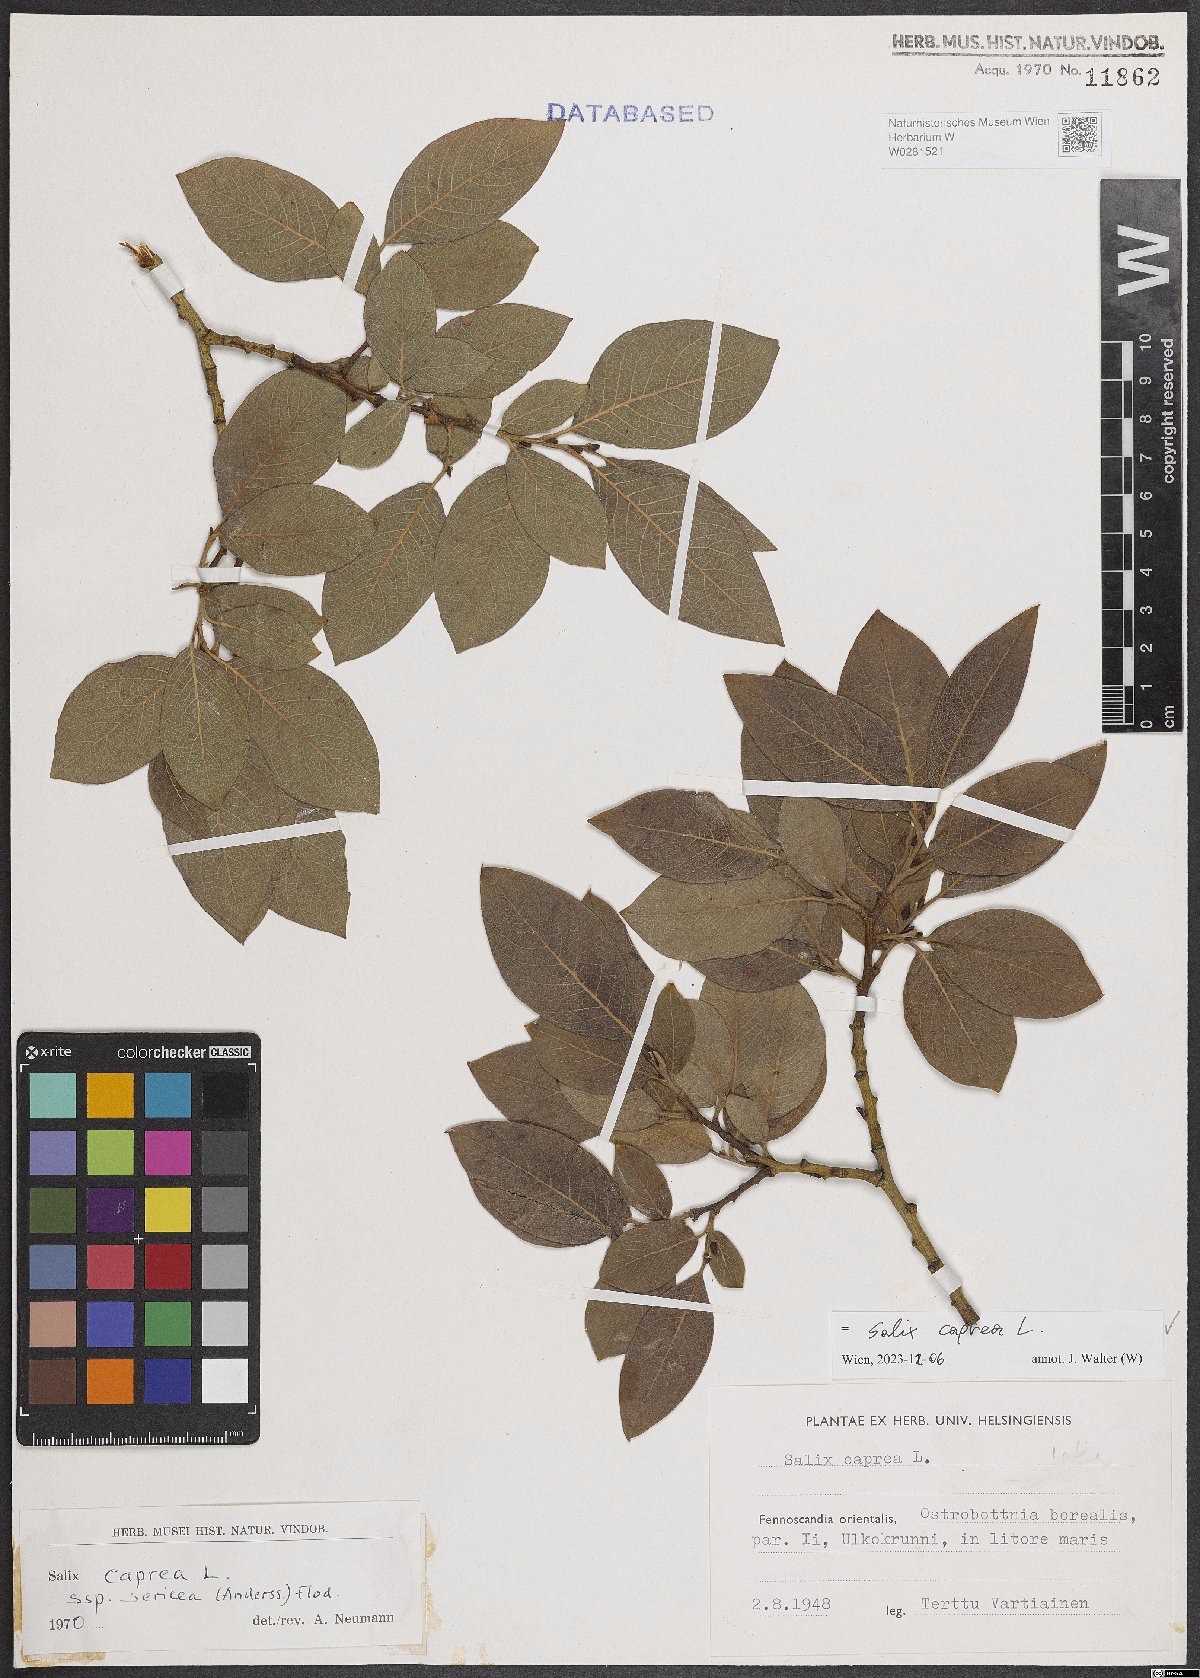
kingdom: Plantae
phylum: Tracheophyta
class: Magnoliopsida
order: Malpighiales
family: Salicaceae
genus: Salix
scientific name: Salix caprea
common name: Goat willow
